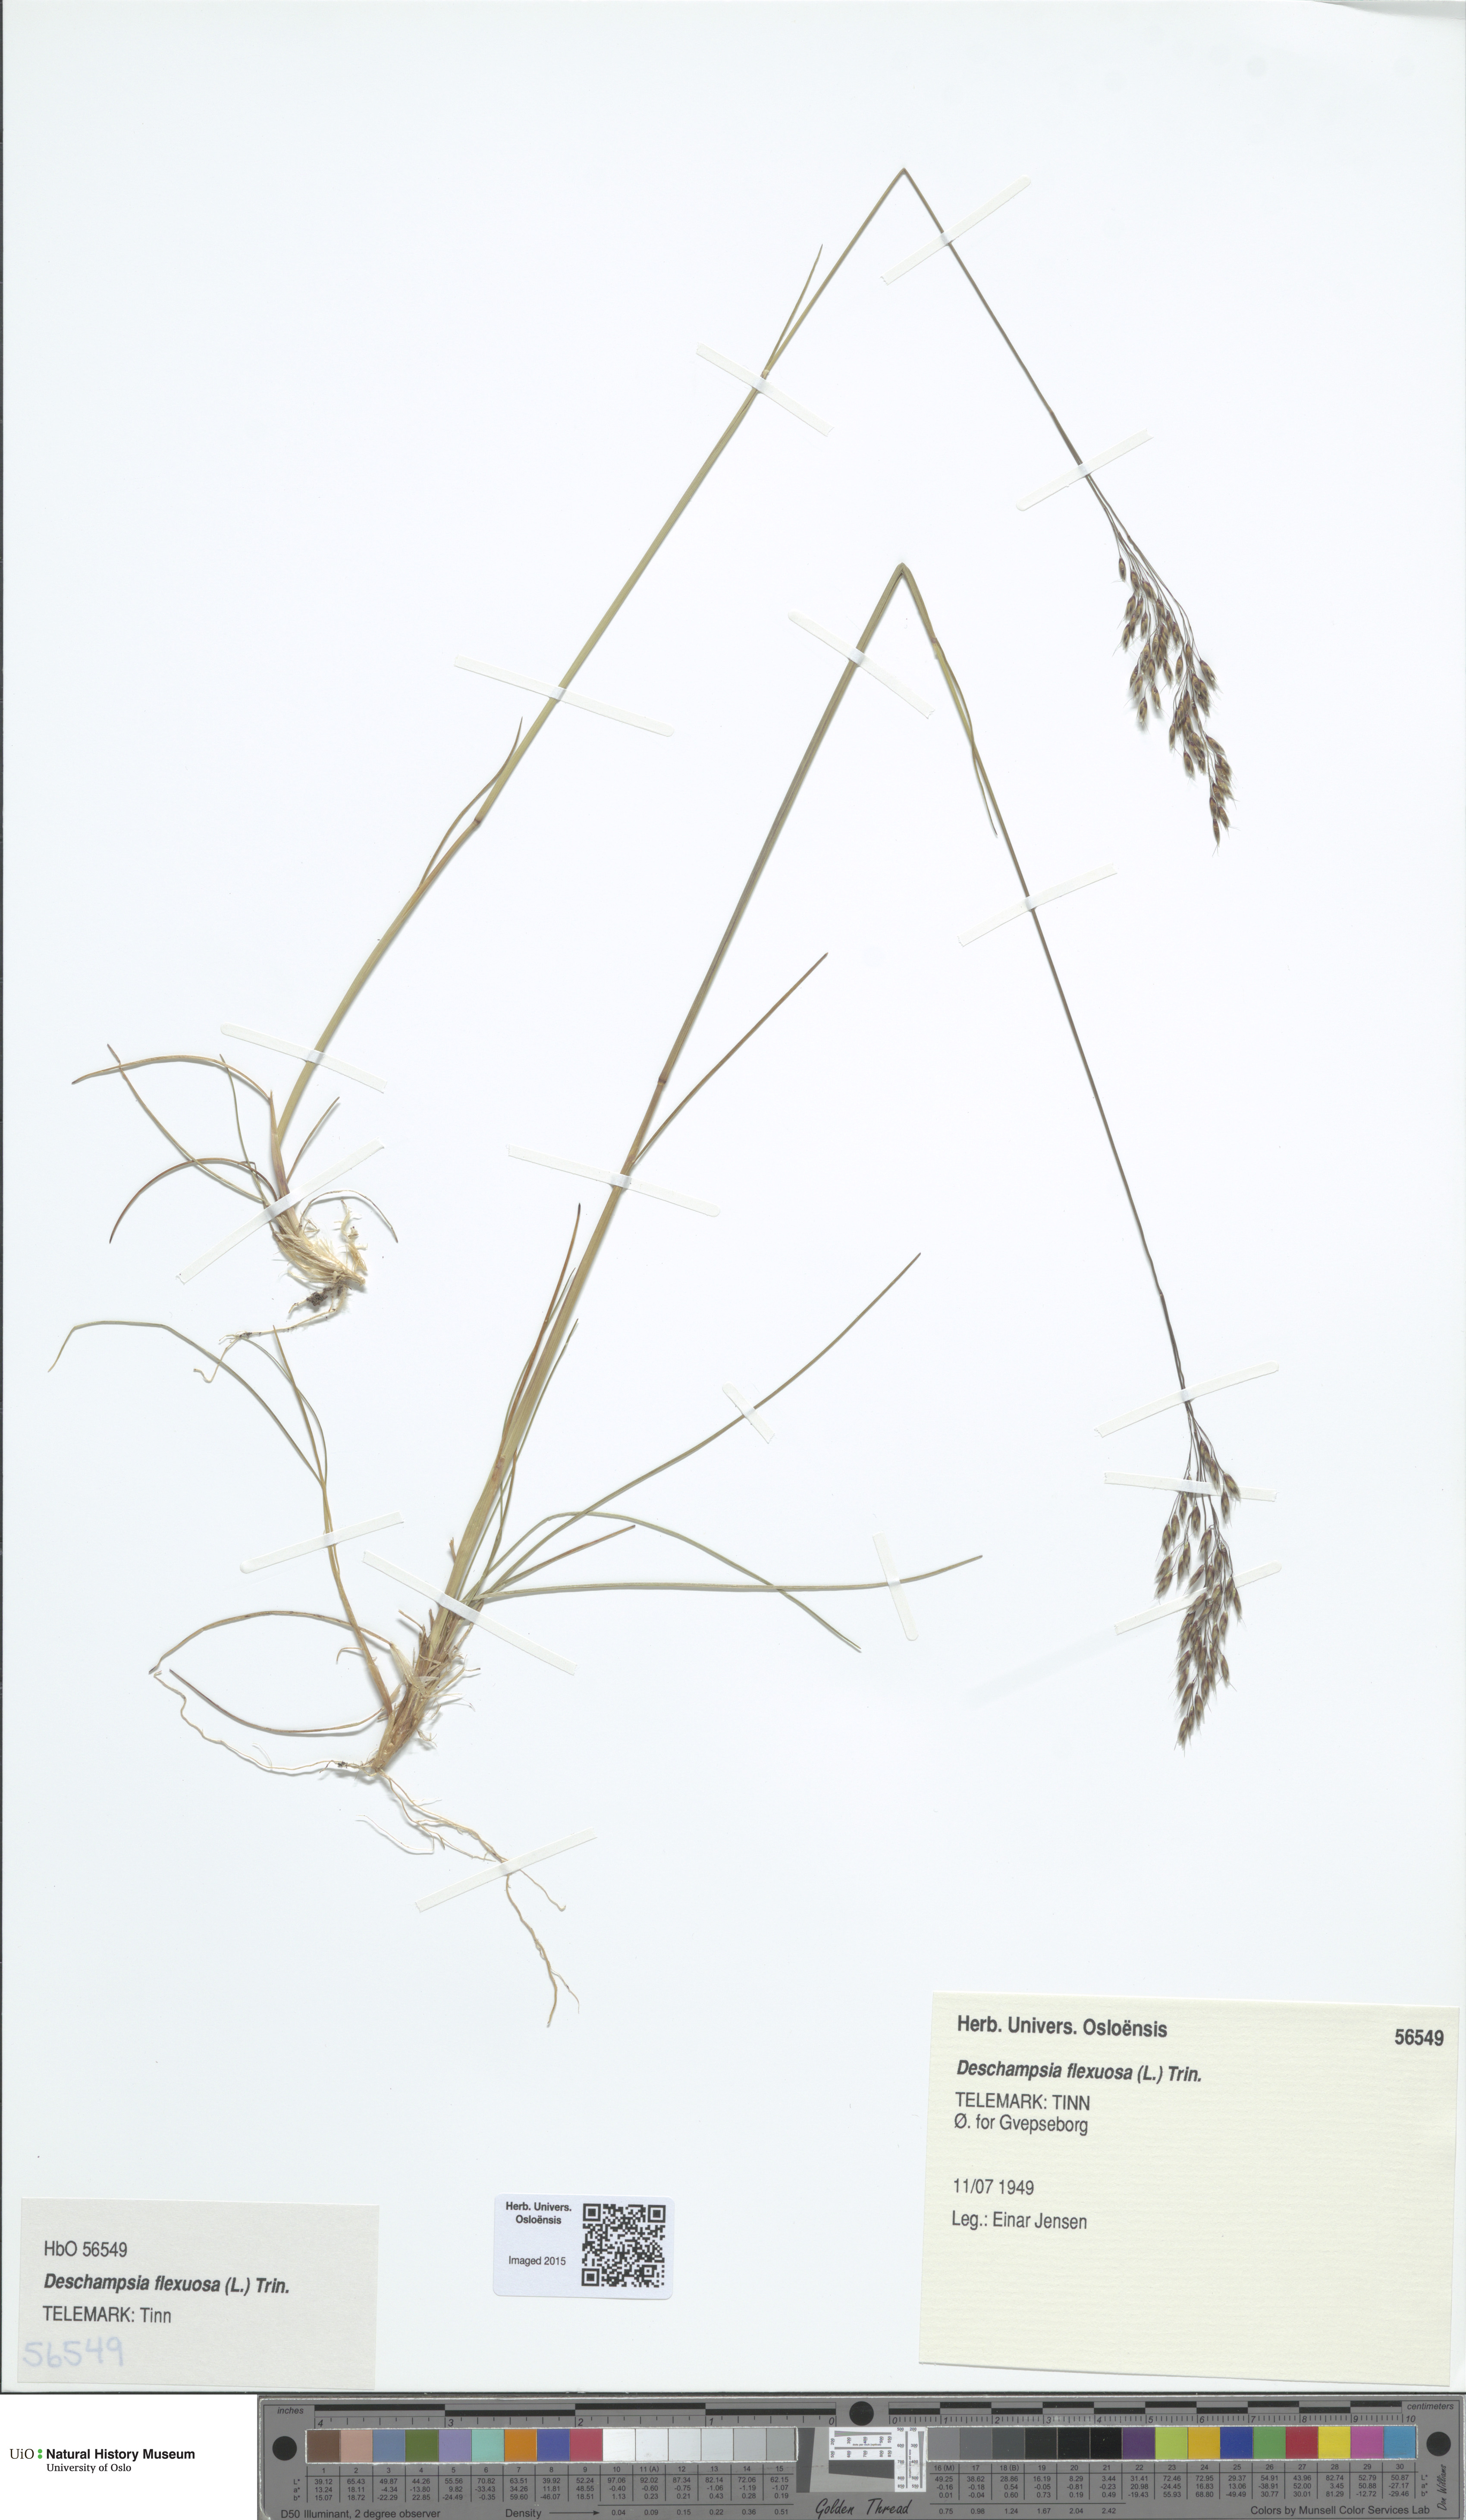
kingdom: Plantae
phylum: Tracheophyta
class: Liliopsida
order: Poales
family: Poaceae
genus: Avenella
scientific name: Avenella flexuosa
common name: Wavy hairgrass
